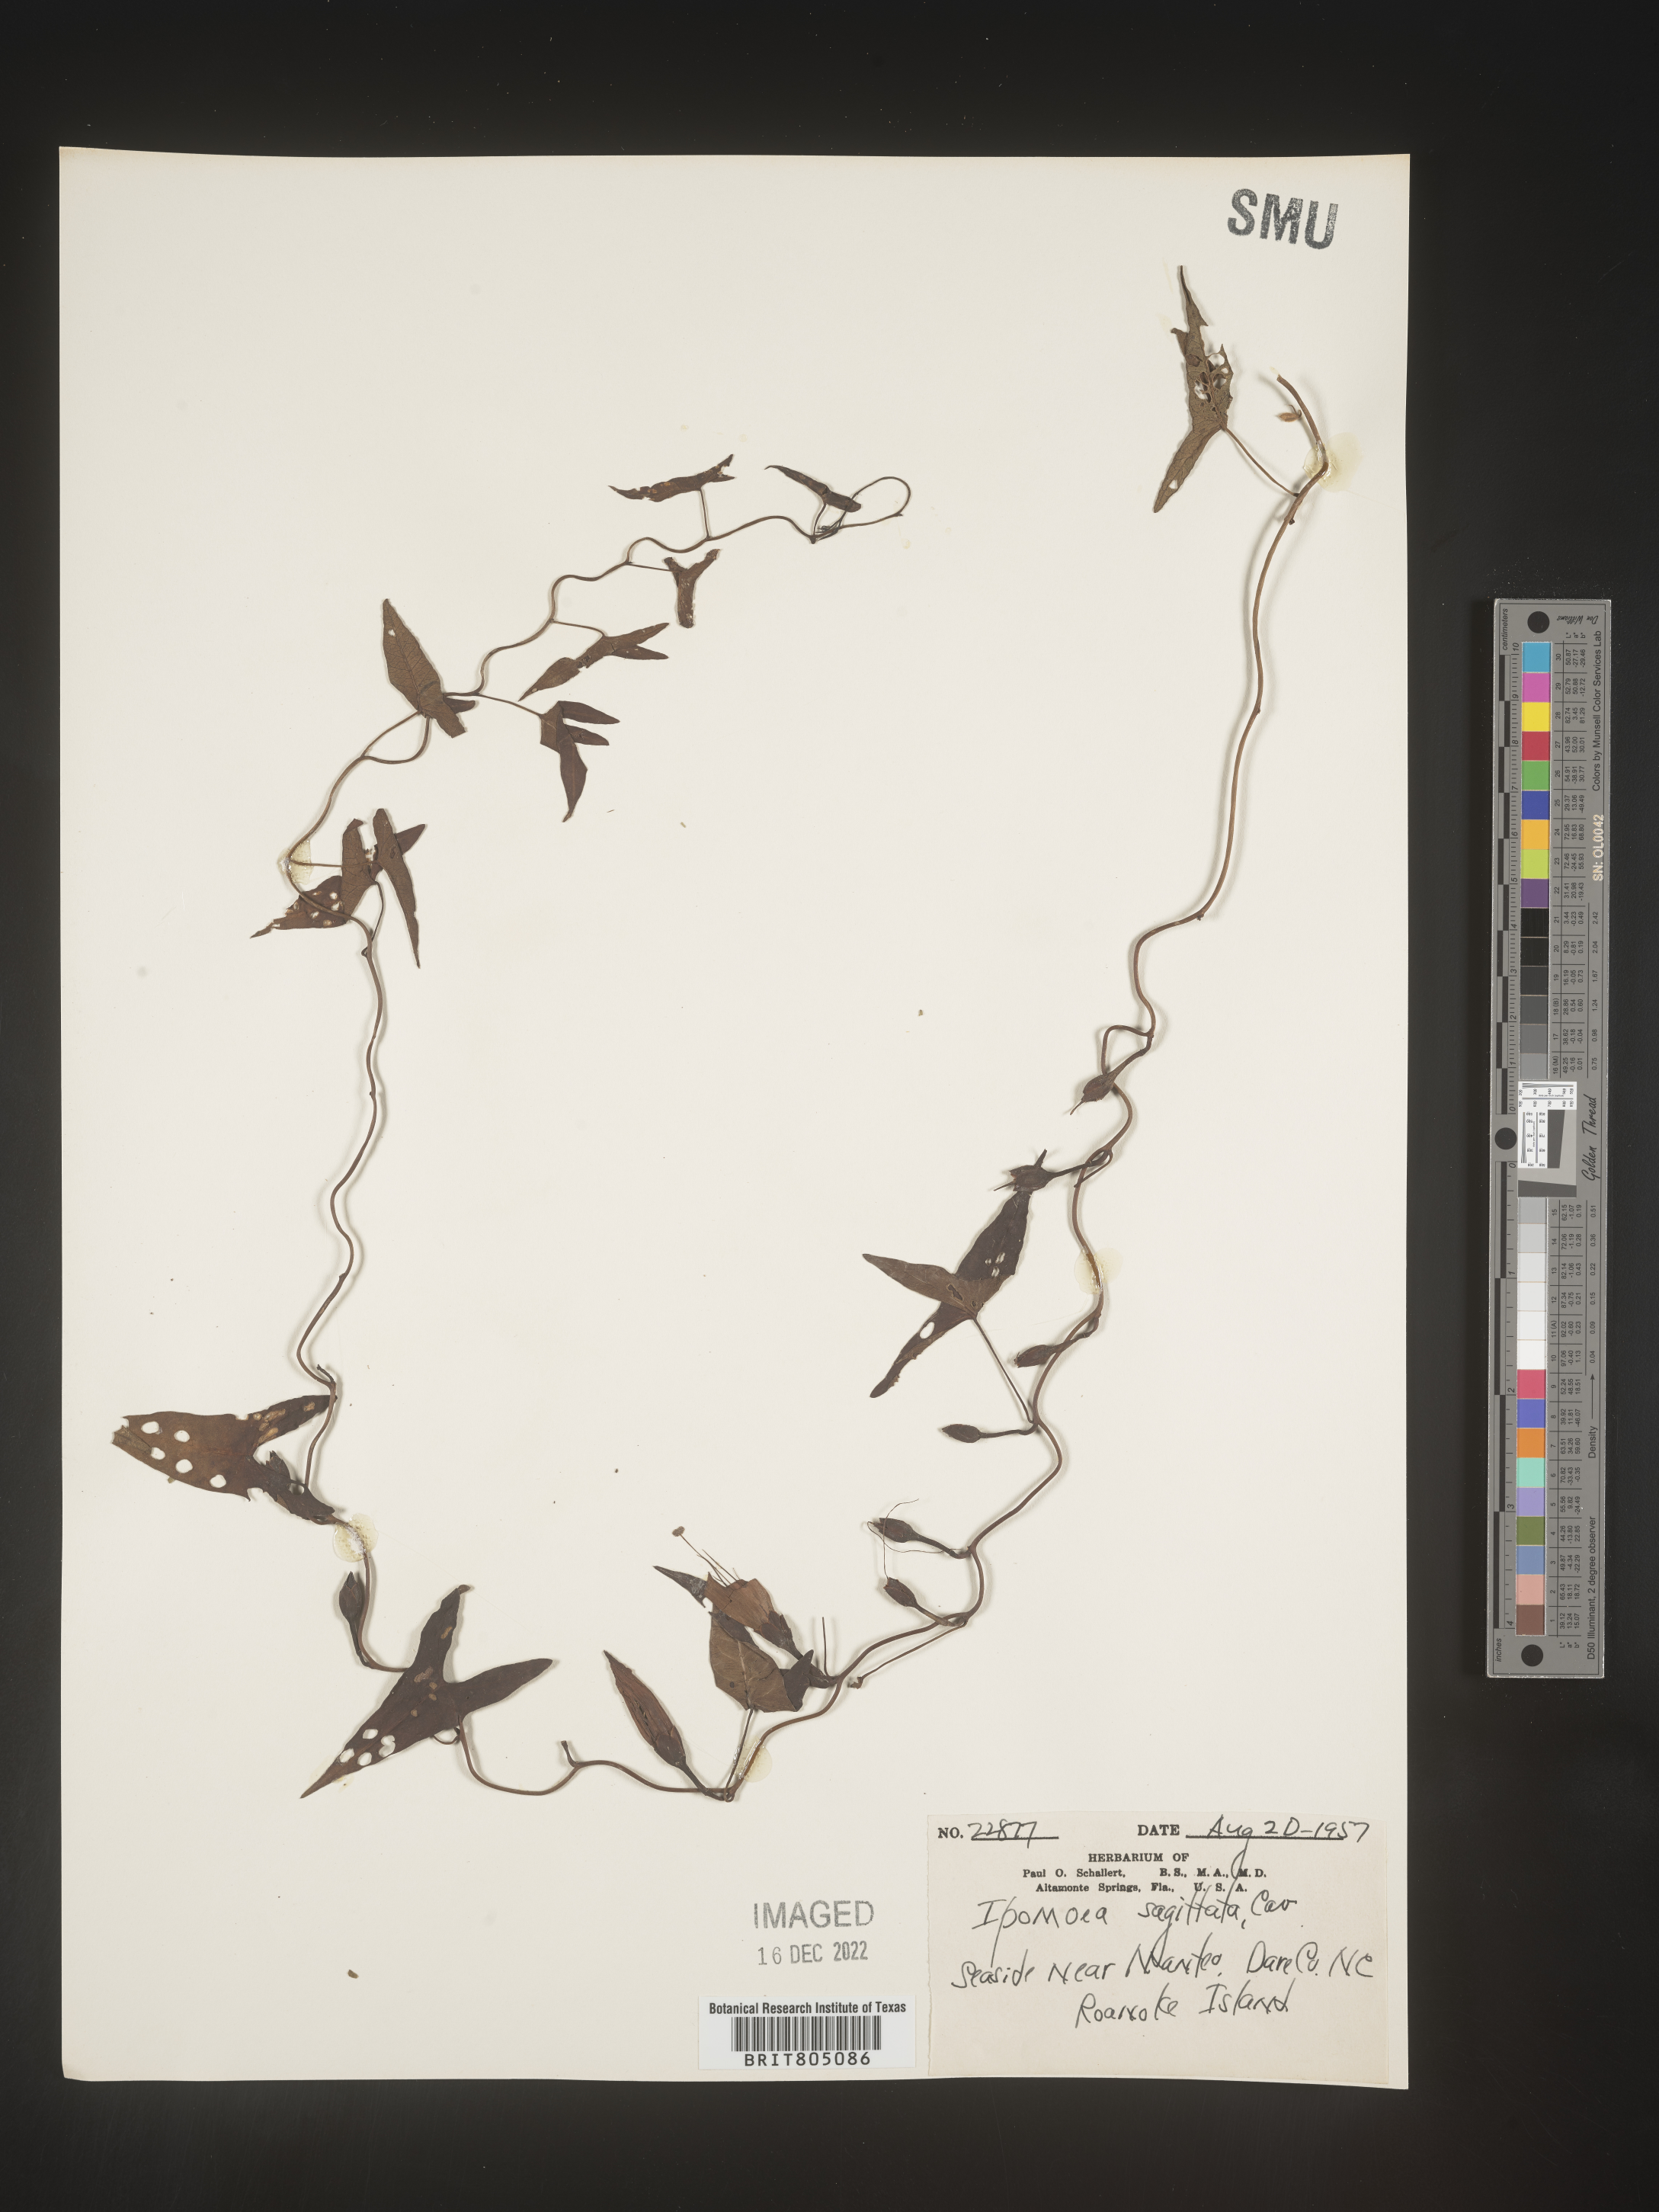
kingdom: Plantae
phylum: Tracheophyta
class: Magnoliopsida
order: Solanales
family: Convolvulaceae
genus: Ipomoea
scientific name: Ipomoea sinensis
